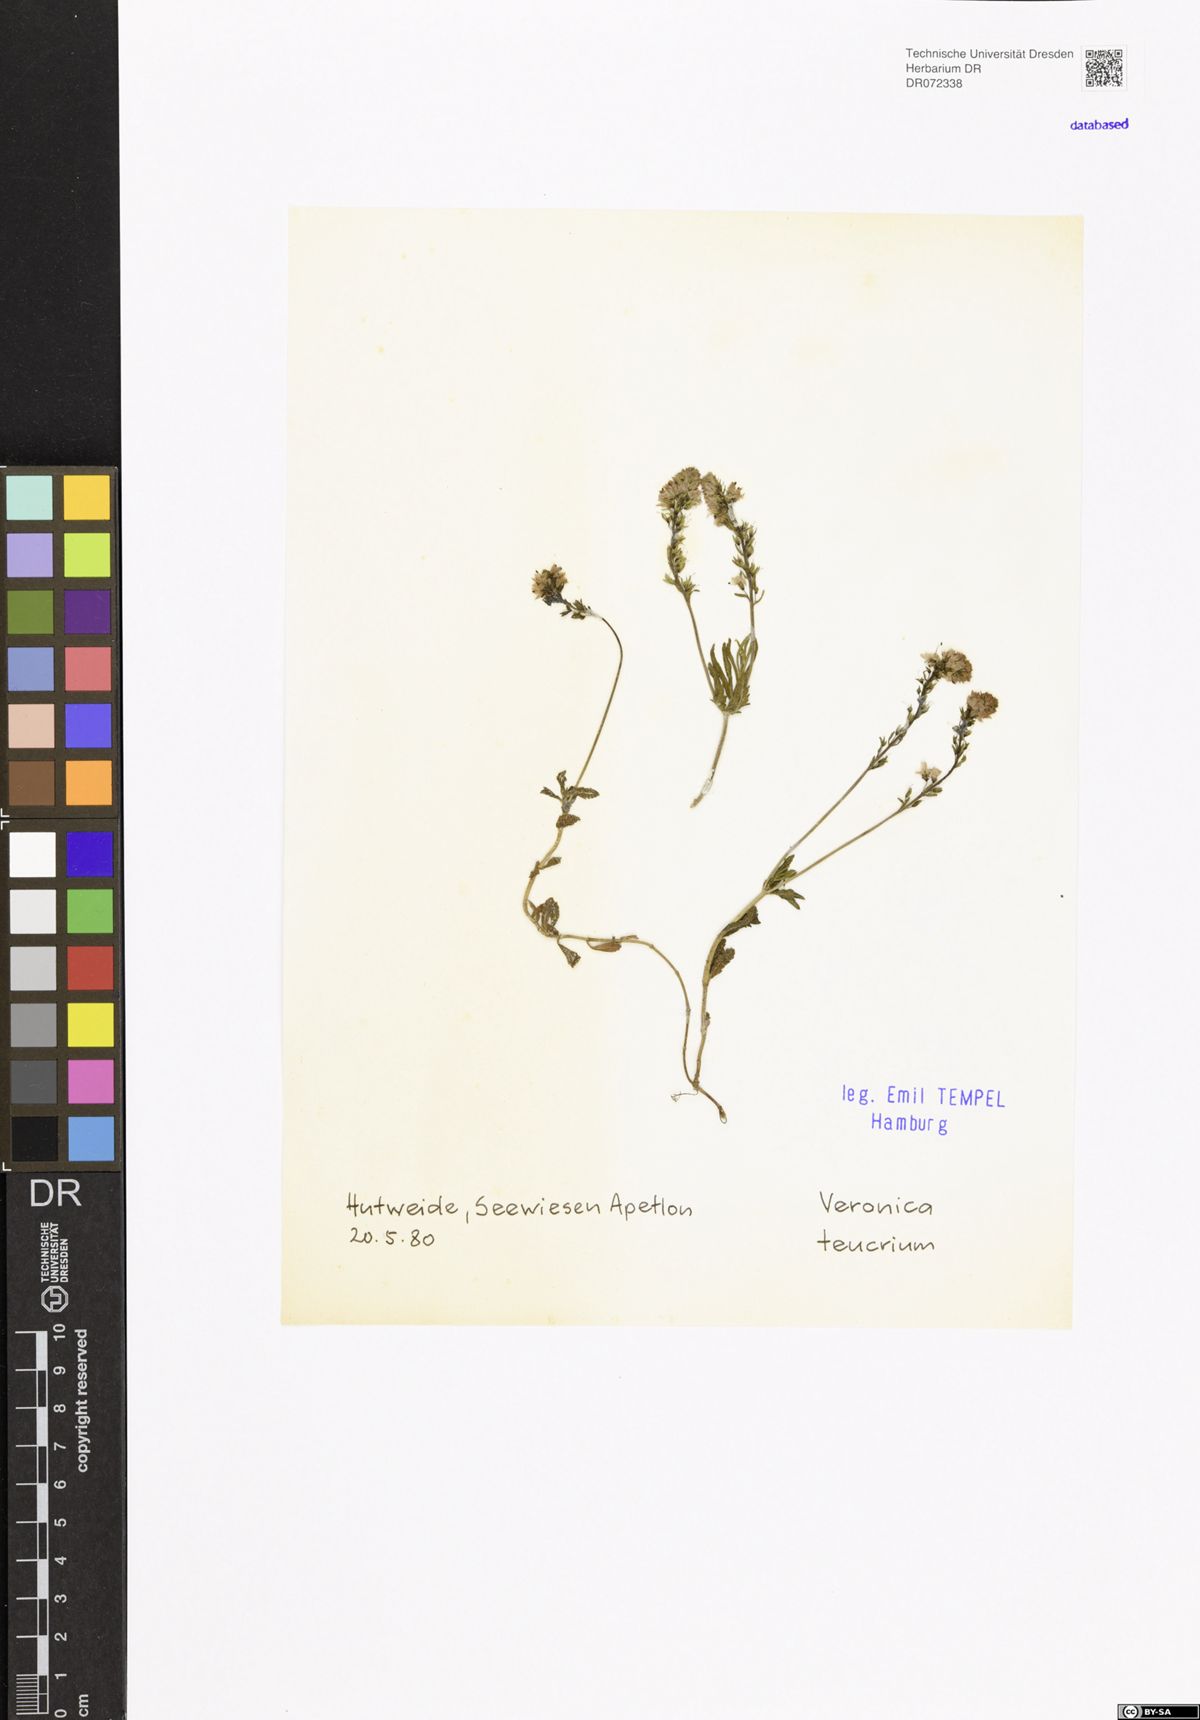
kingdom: Plantae
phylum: Tracheophyta
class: Magnoliopsida
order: Lamiales
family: Plantaginaceae
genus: Veronica
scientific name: Veronica teucrium
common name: Large speedwell
